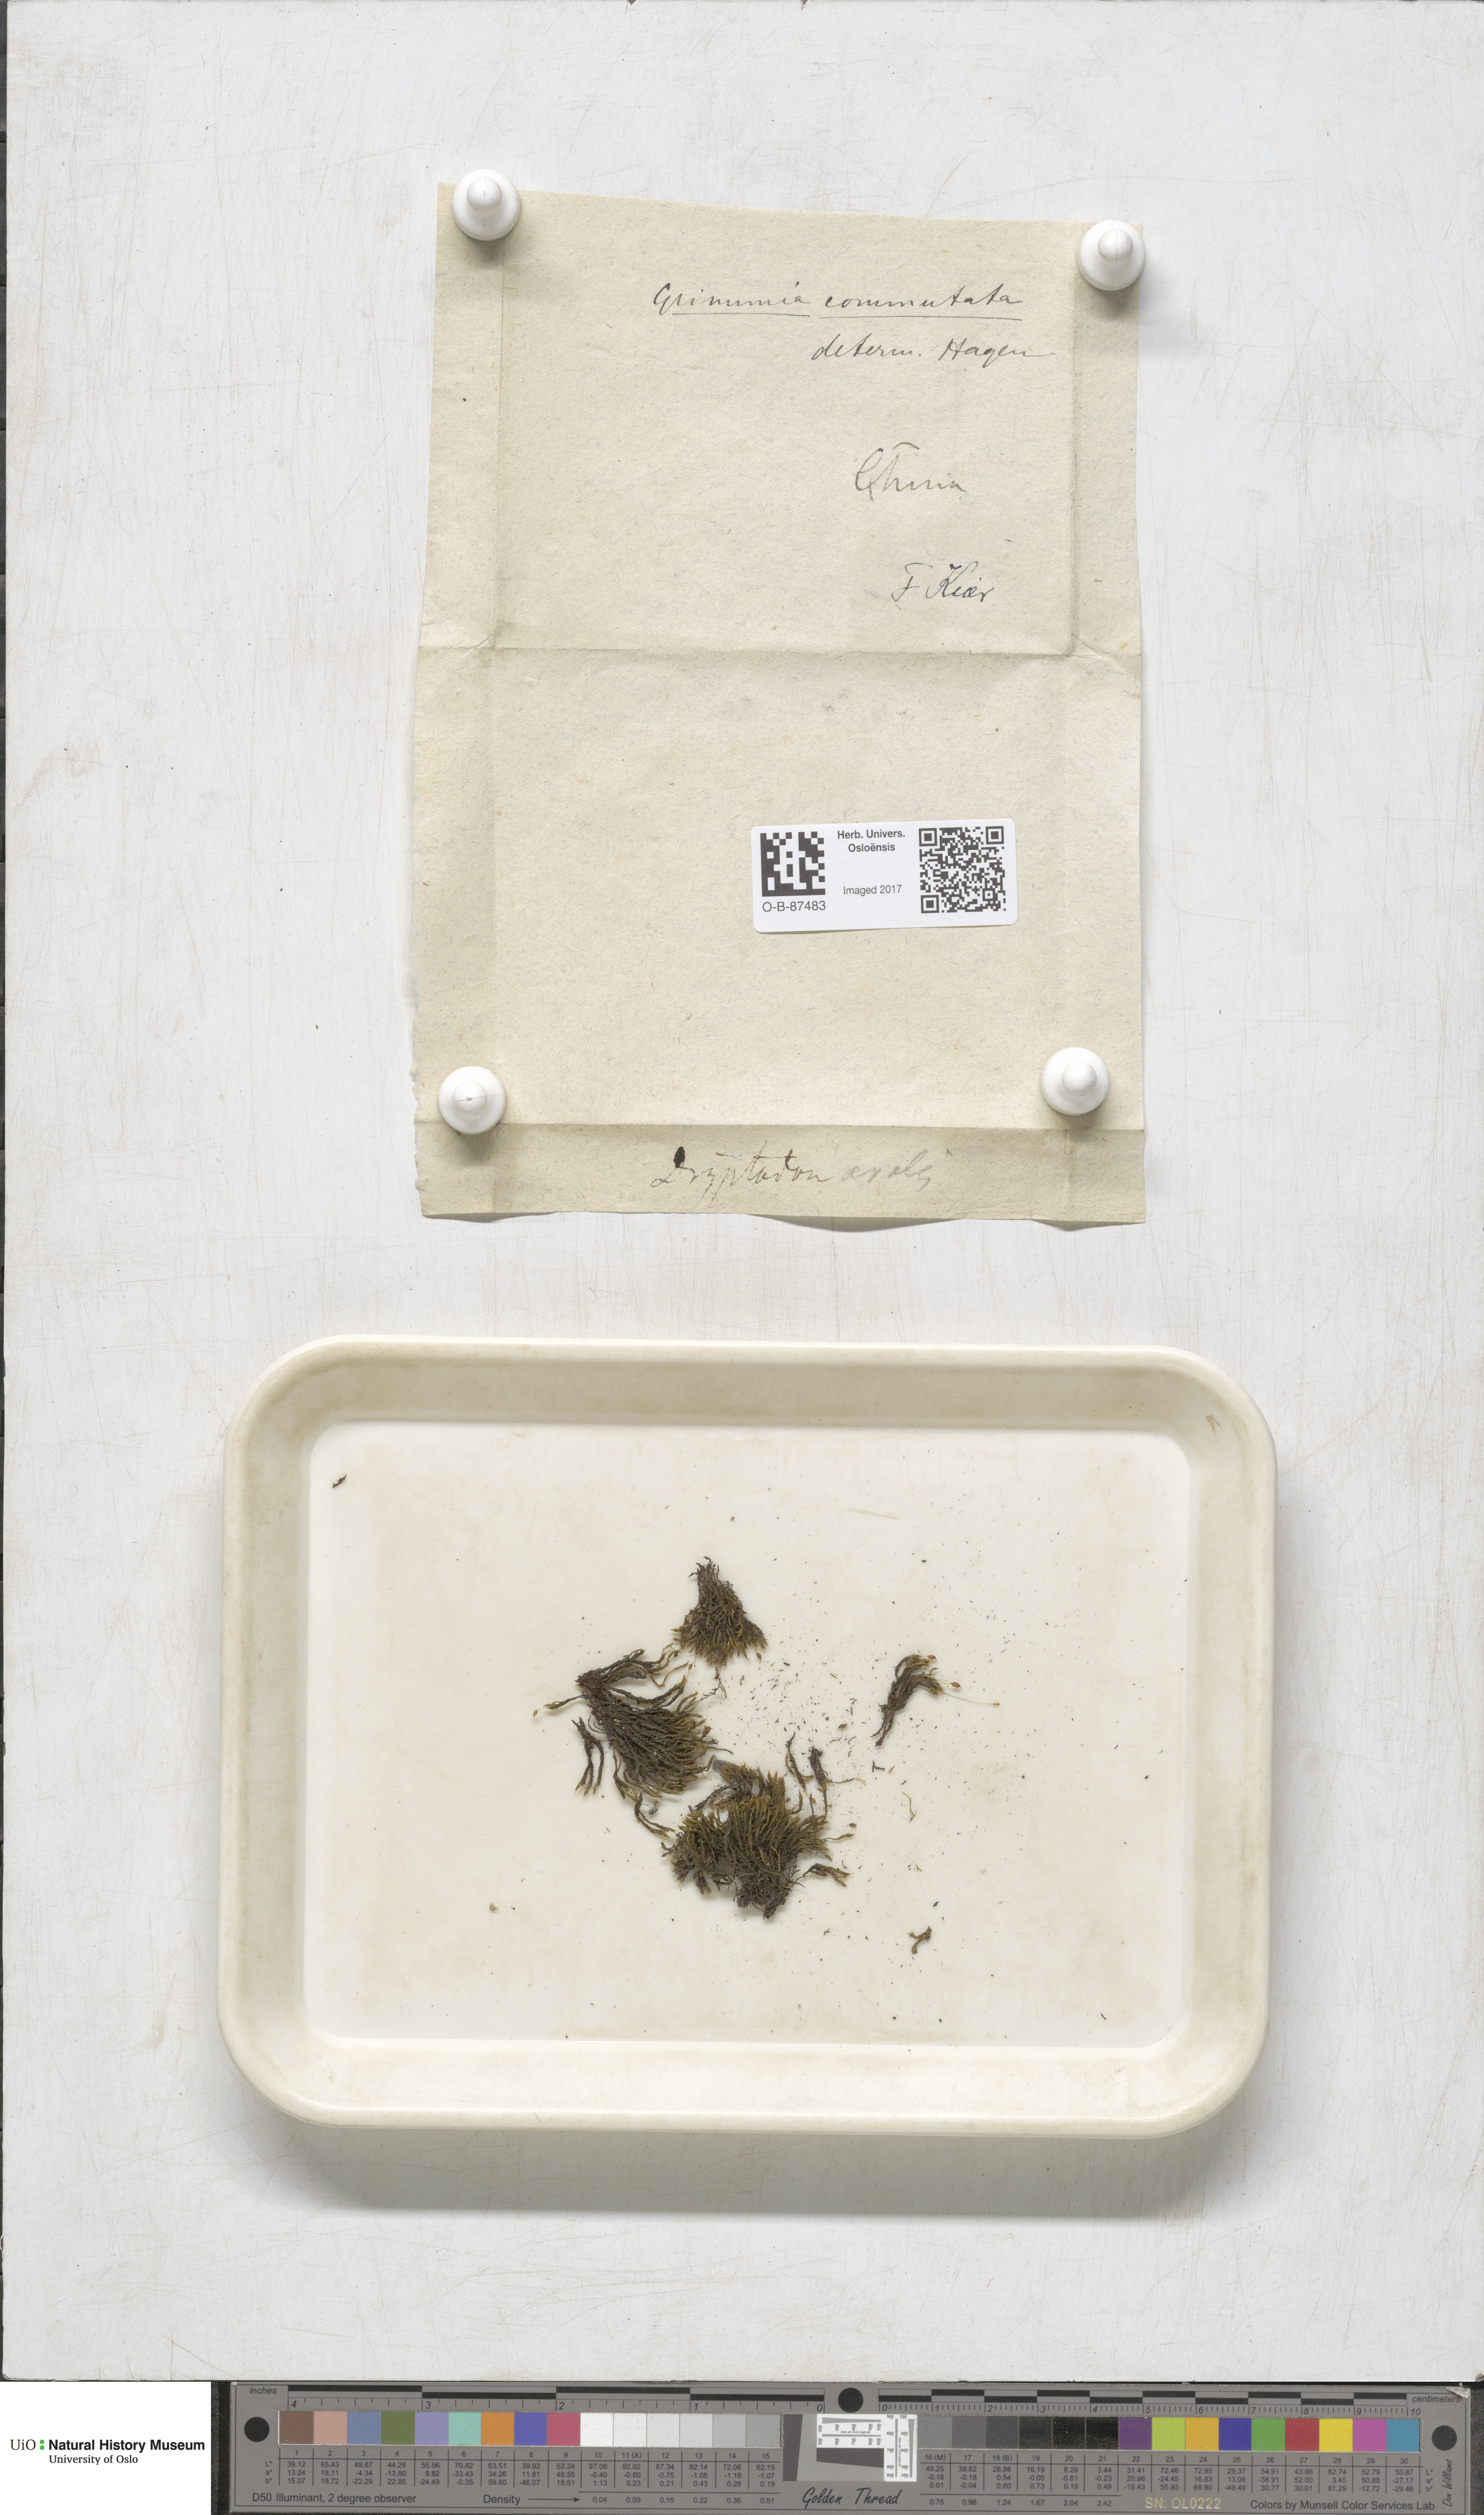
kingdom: Plantae
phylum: Bryophyta
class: Bryopsida
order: Grimmiales
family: Grimmiaceae
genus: Grimmia
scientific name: Grimmia ovalis
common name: Oval grimmia
